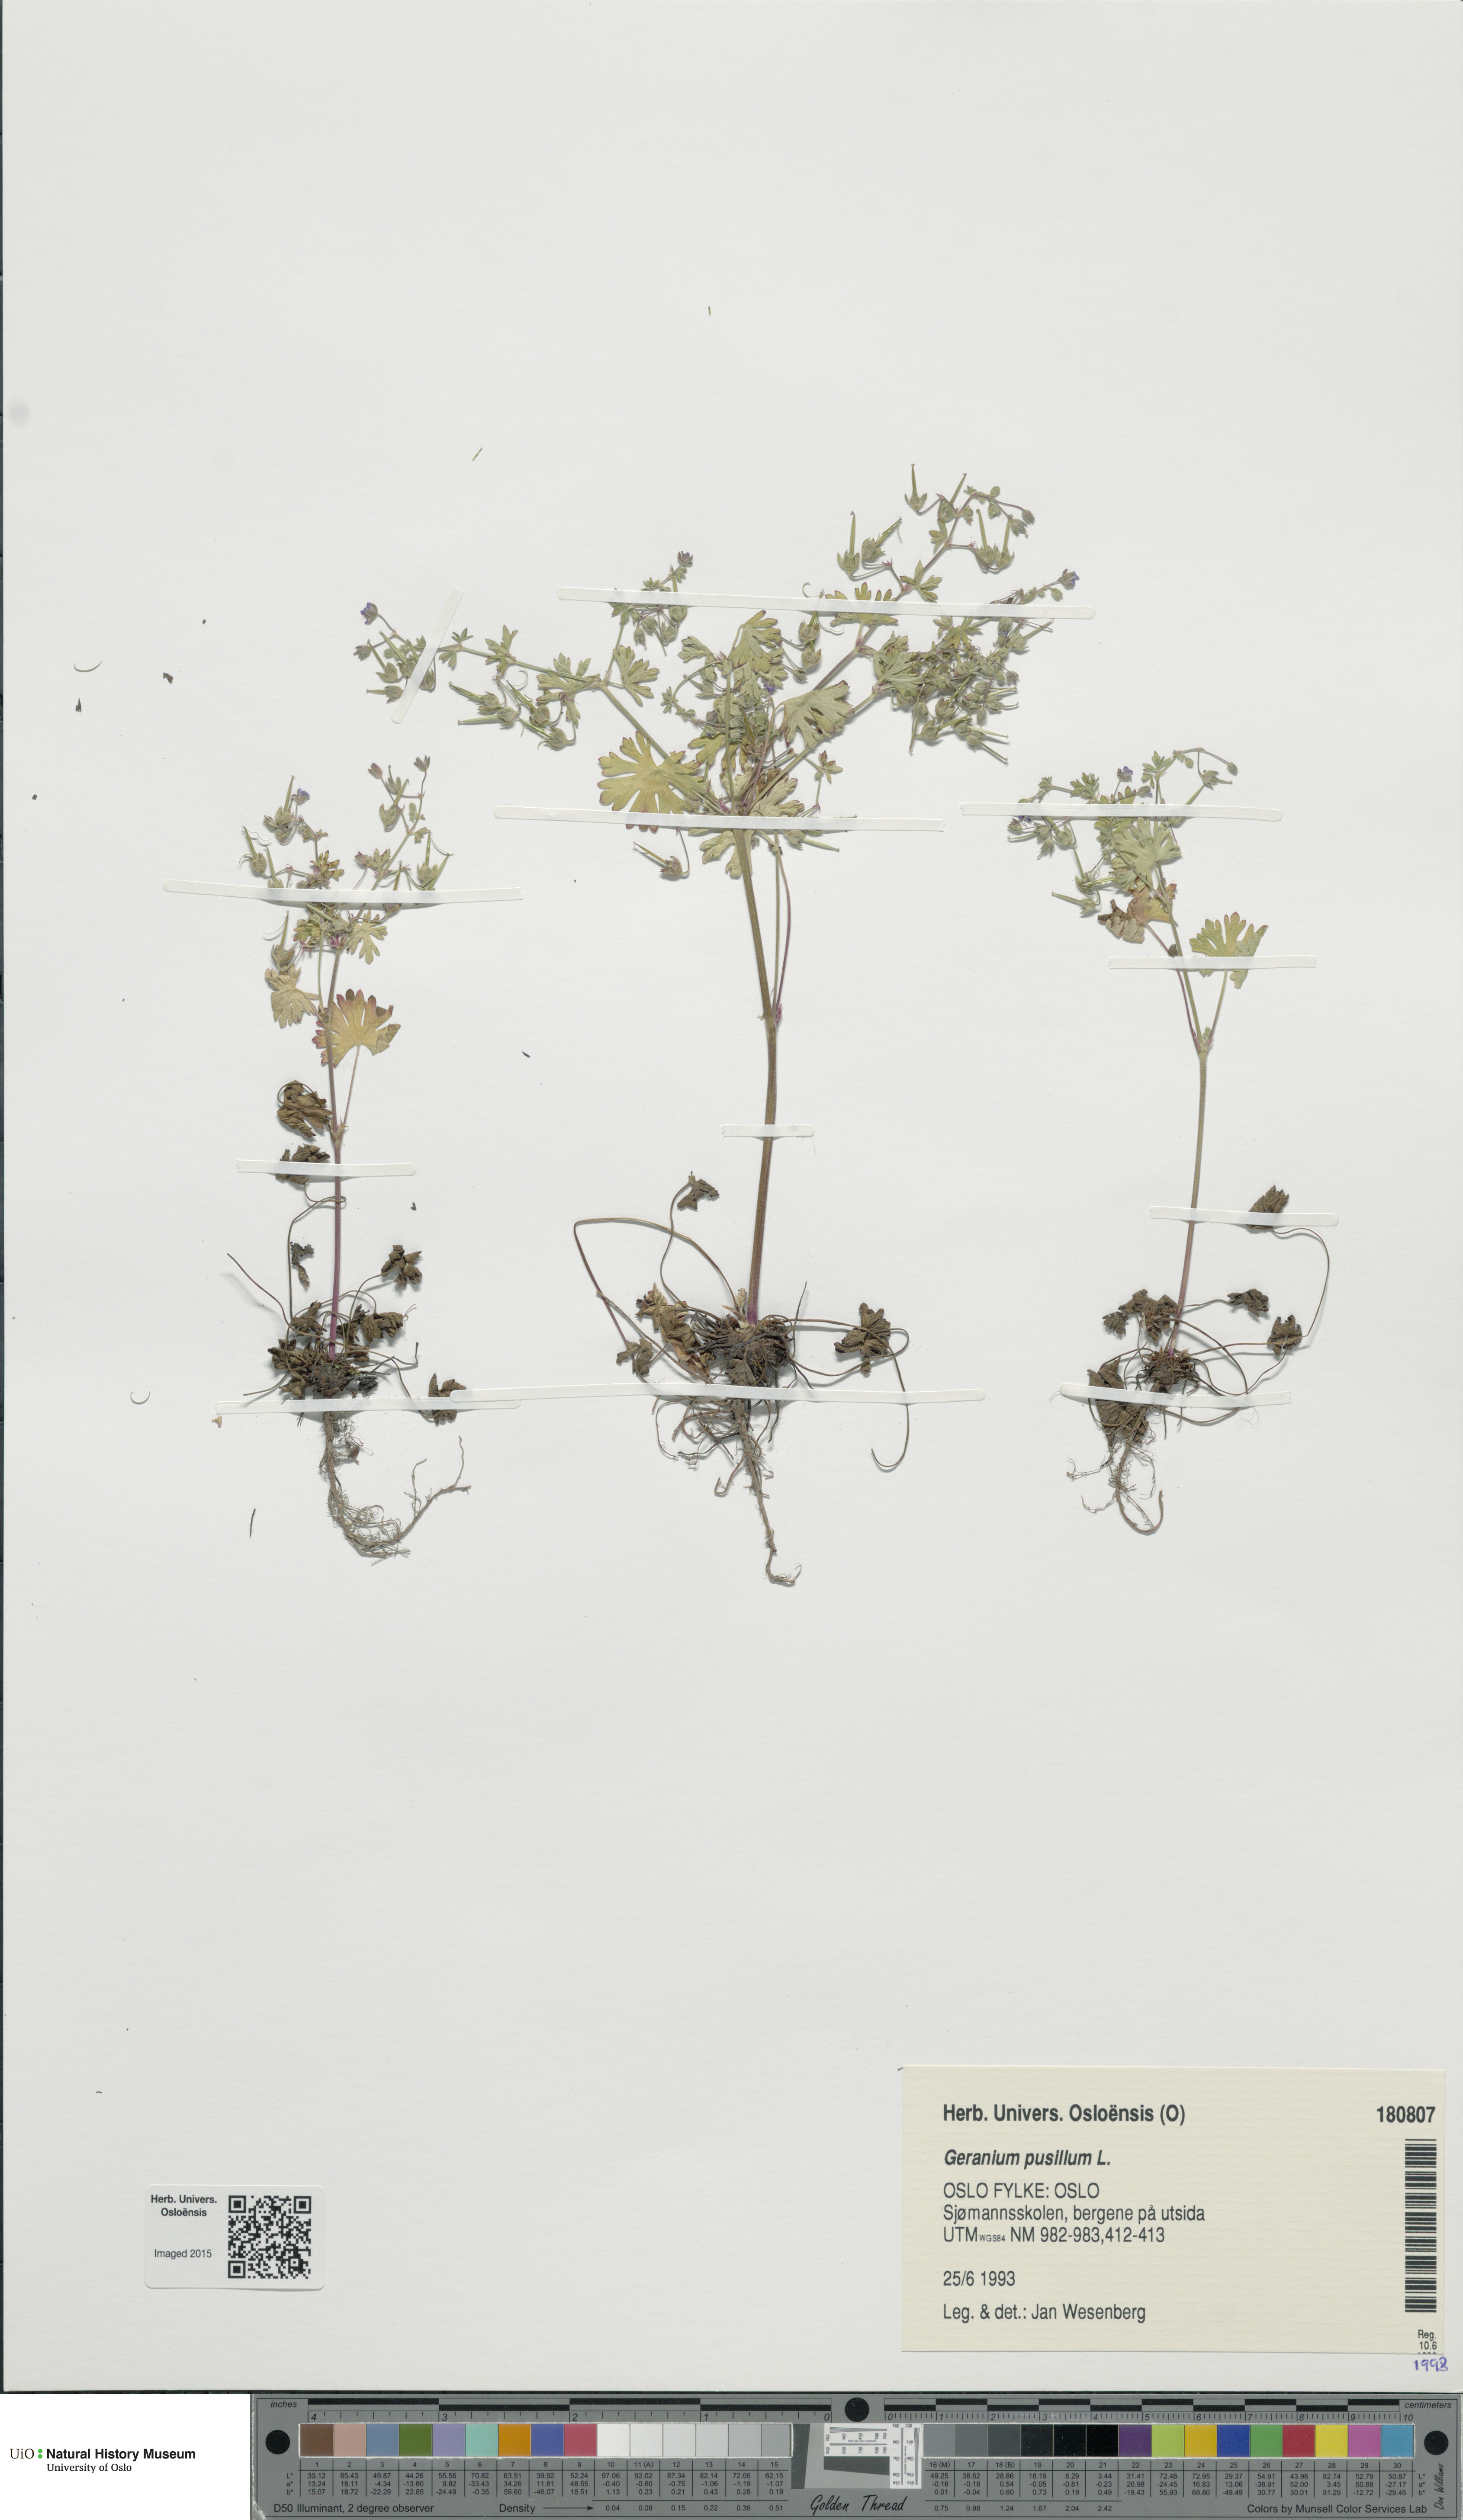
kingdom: Plantae
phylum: Tracheophyta
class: Magnoliopsida
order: Geraniales
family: Geraniaceae
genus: Geranium
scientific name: Geranium pusillum
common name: Small geranium
